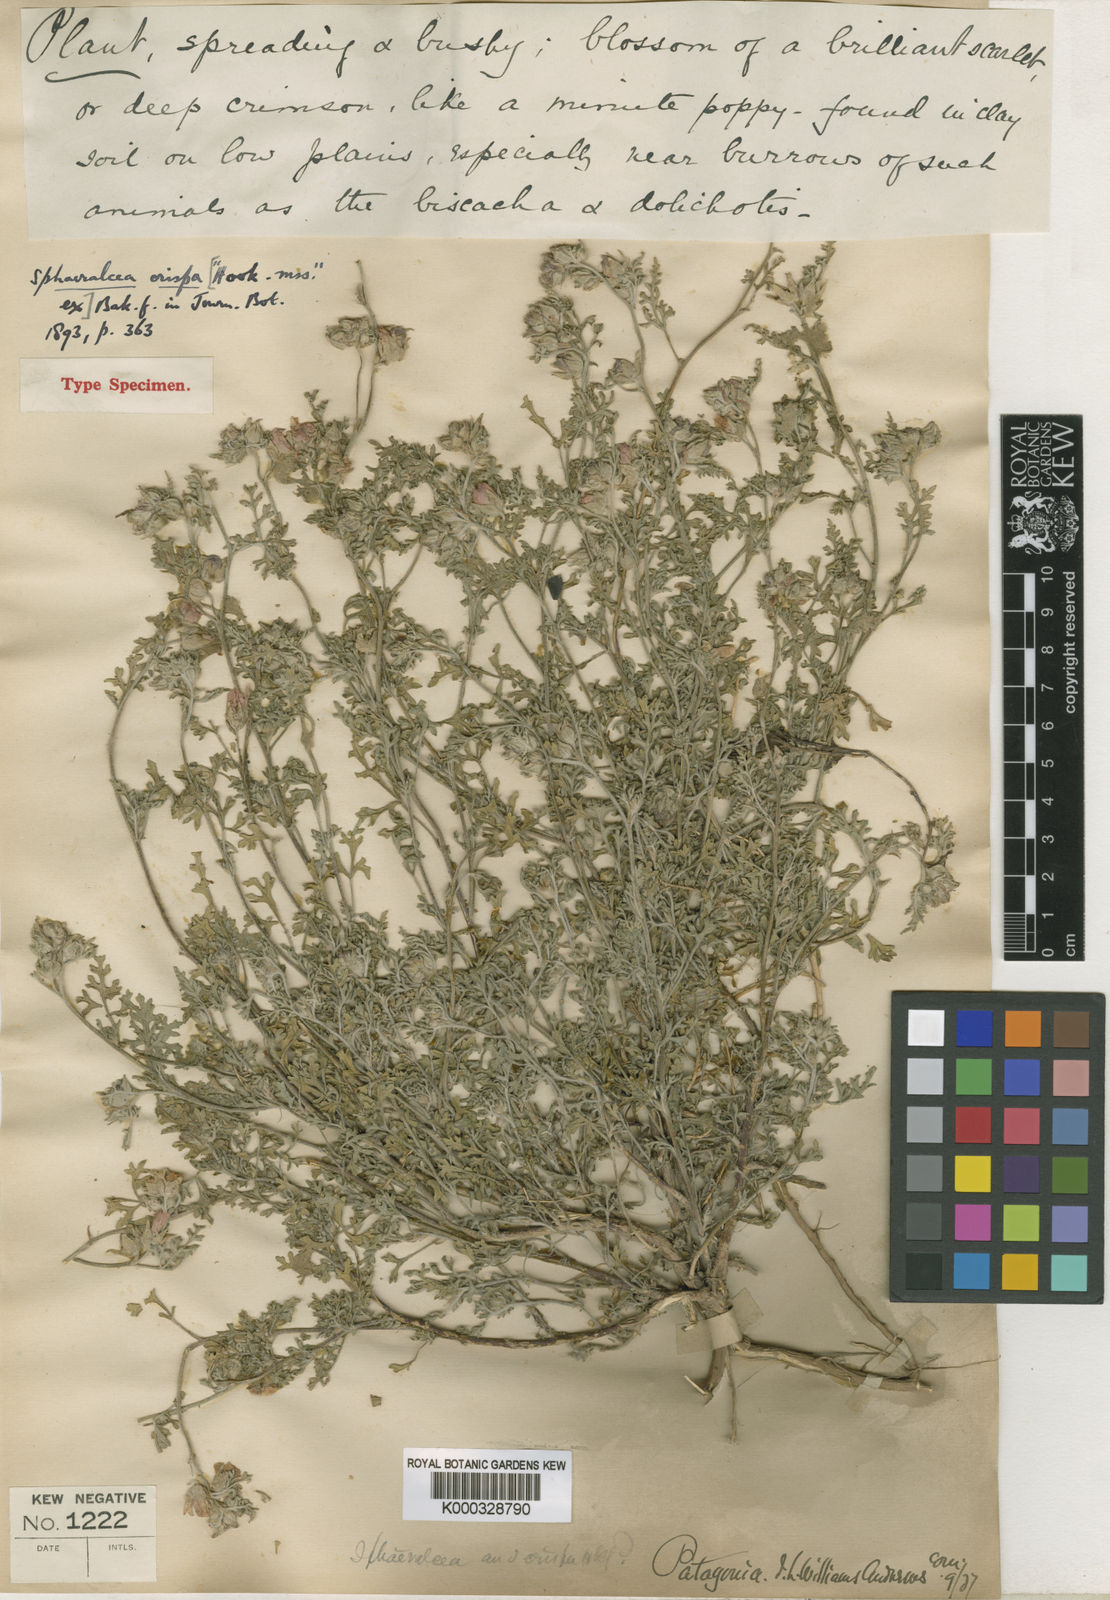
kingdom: Plantae
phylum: Tracheophyta
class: Magnoliopsida
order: Malvales
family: Malvaceae
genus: Sphaeralcea
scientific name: Sphaeralcea crispa
